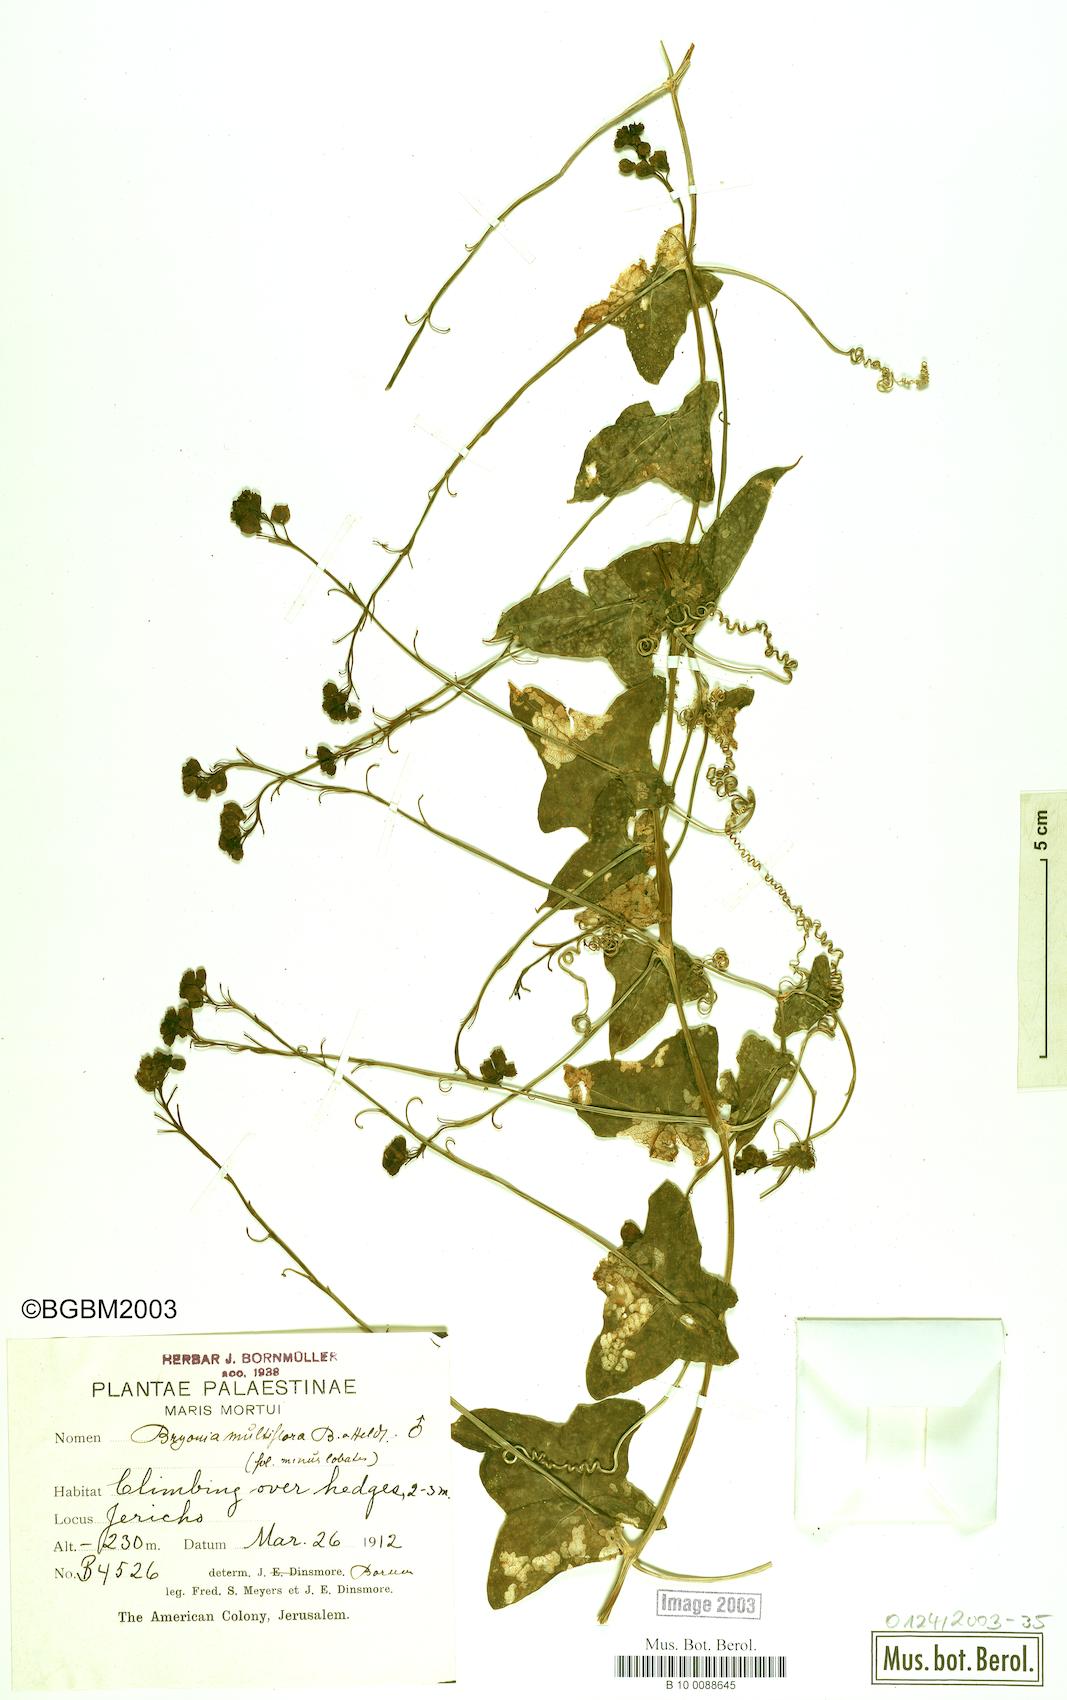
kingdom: Plantae
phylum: Tracheophyta
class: Magnoliopsida
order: Cucurbitales
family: Cucurbitaceae
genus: Bryonia
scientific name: Bryonia multiflora
